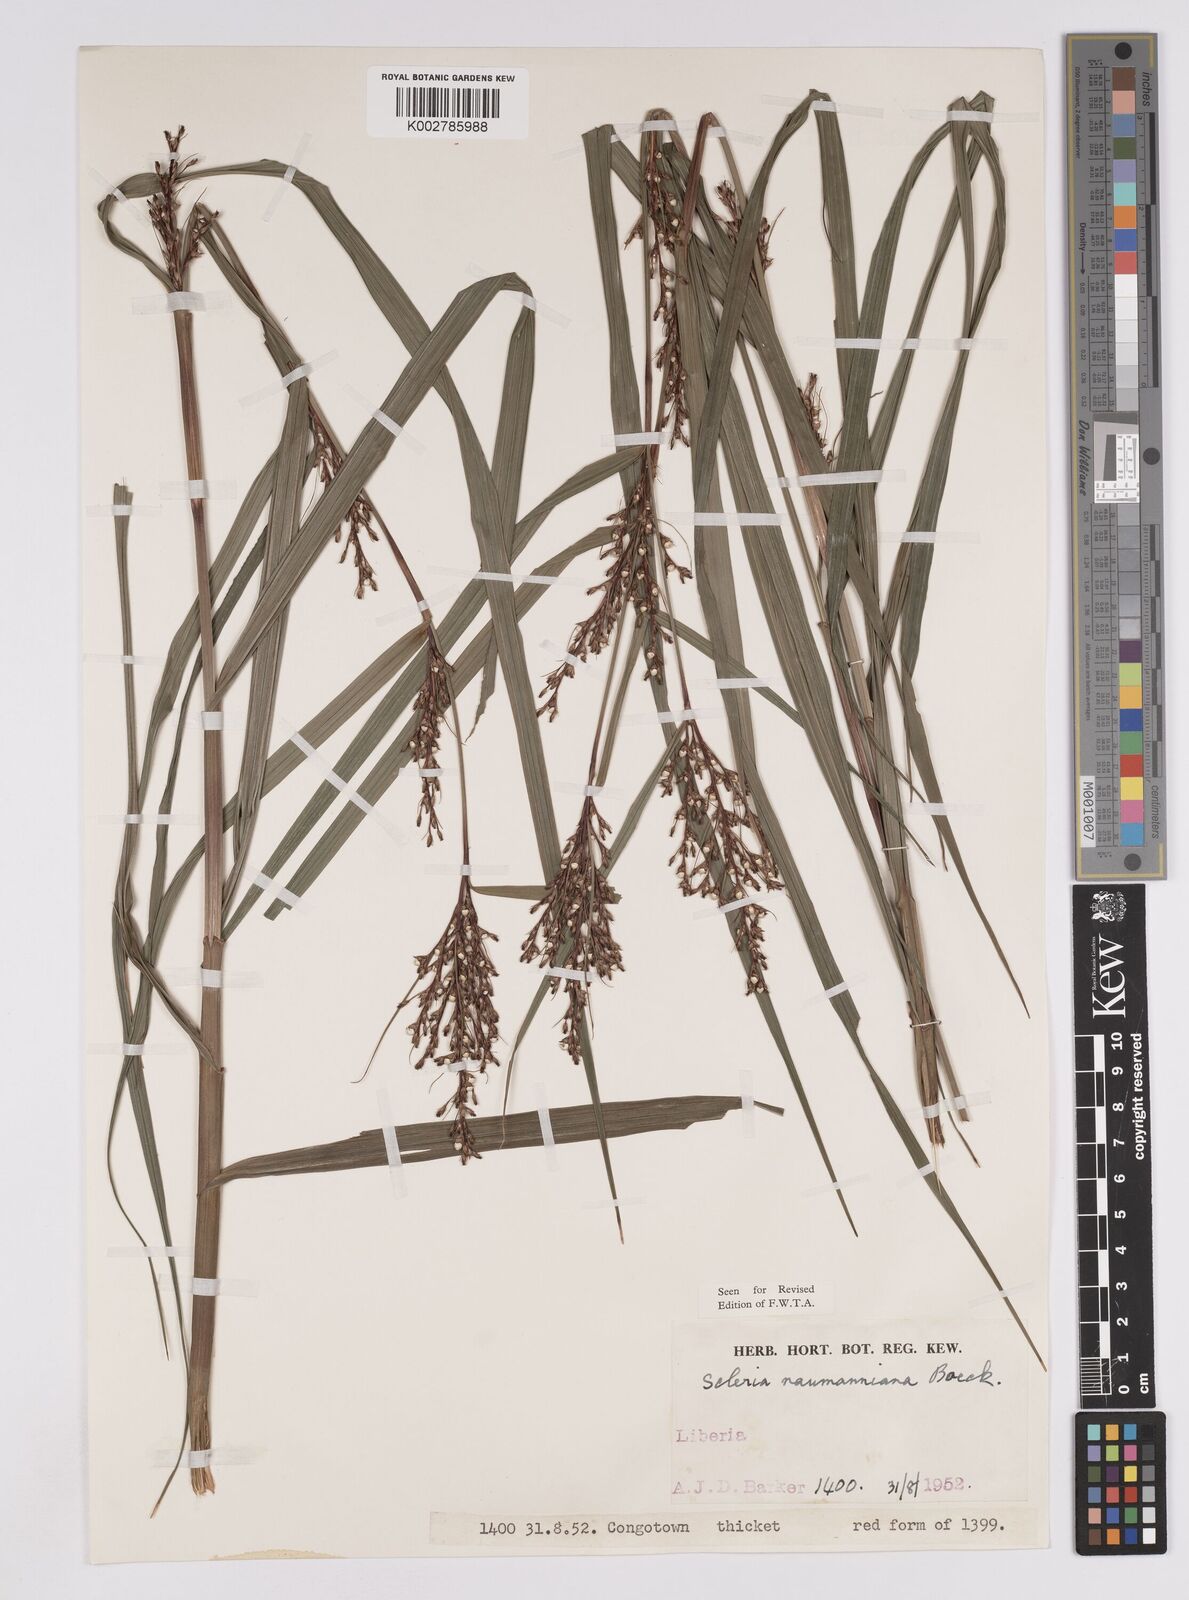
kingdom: Plantae
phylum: Tracheophyta
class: Liliopsida
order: Poales
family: Cyperaceae
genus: Scleria
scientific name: Scleria naumanniana
